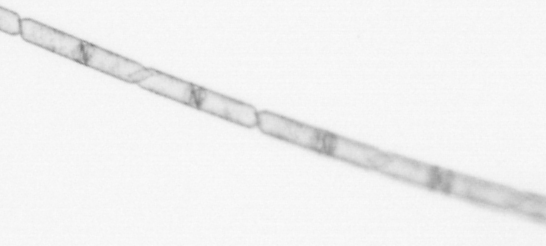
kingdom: Chromista
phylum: Ochrophyta
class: Bacillariophyceae
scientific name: Bacillariophyceae
